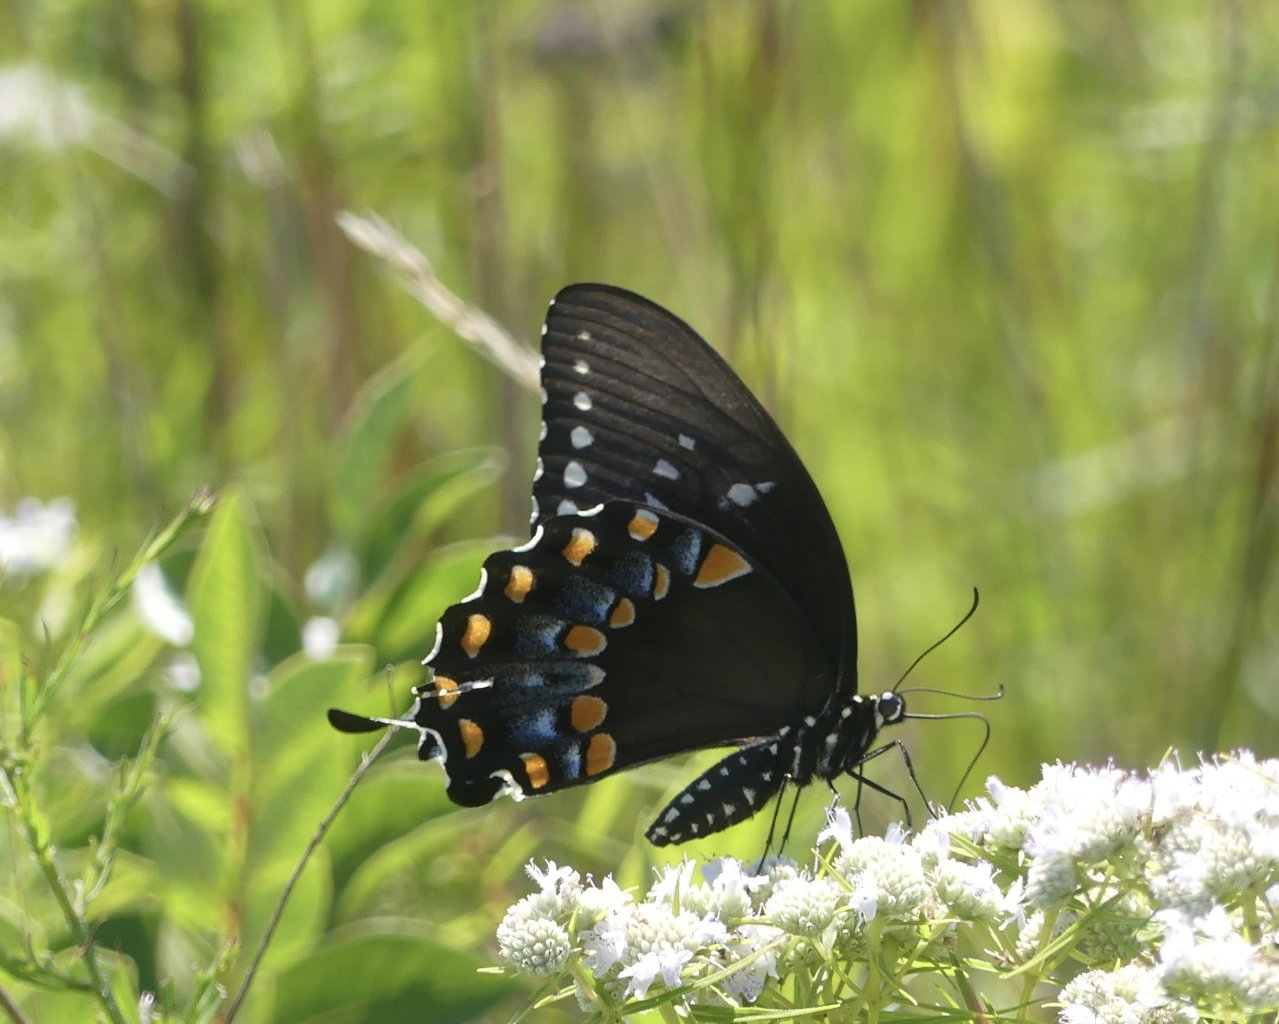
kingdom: Animalia
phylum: Arthropoda
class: Insecta
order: Lepidoptera
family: Papilionidae
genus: Pterourus
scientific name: Pterourus troilus
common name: Spicebush Swallowtail
